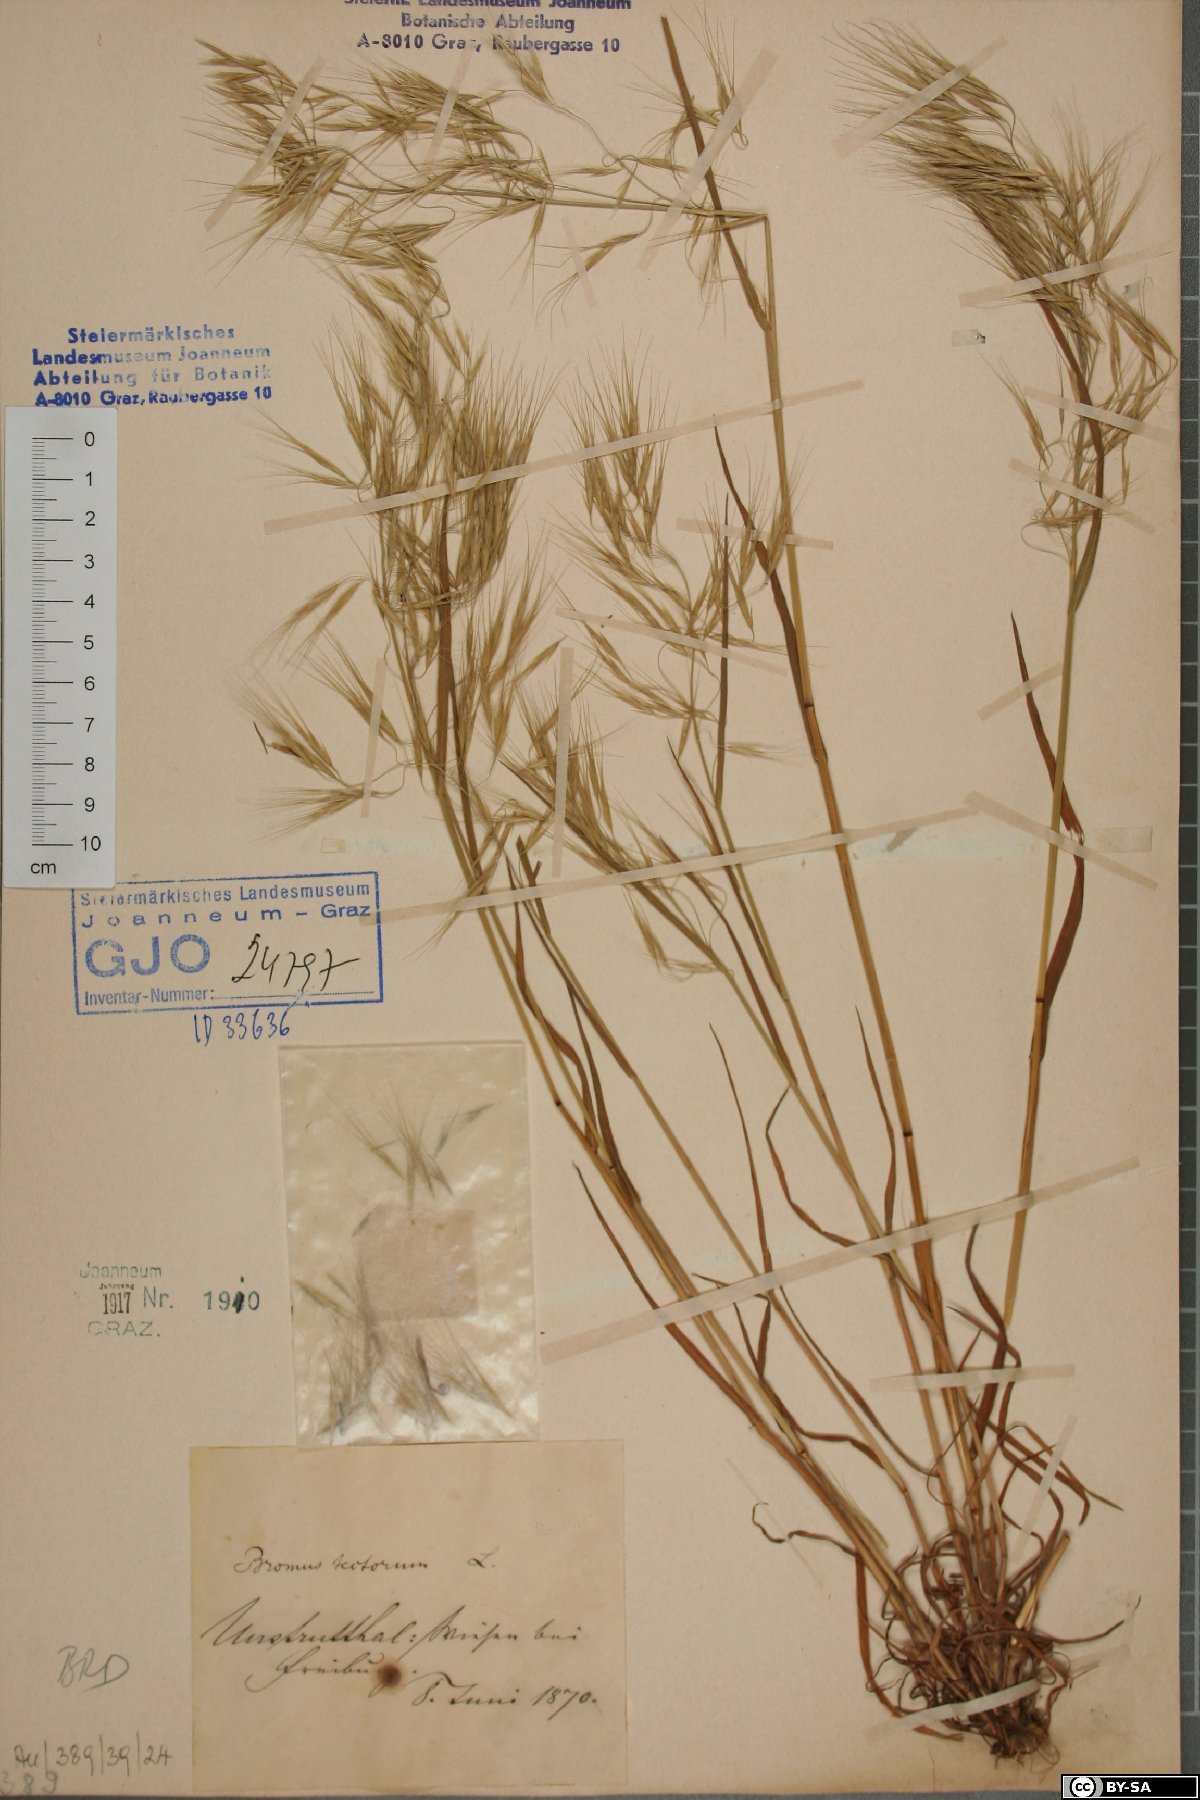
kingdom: Plantae
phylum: Tracheophyta
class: Liliopsida
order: Poales
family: Poaceae
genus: Bromus
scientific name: Bromus tectorum
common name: Cheatgrass
